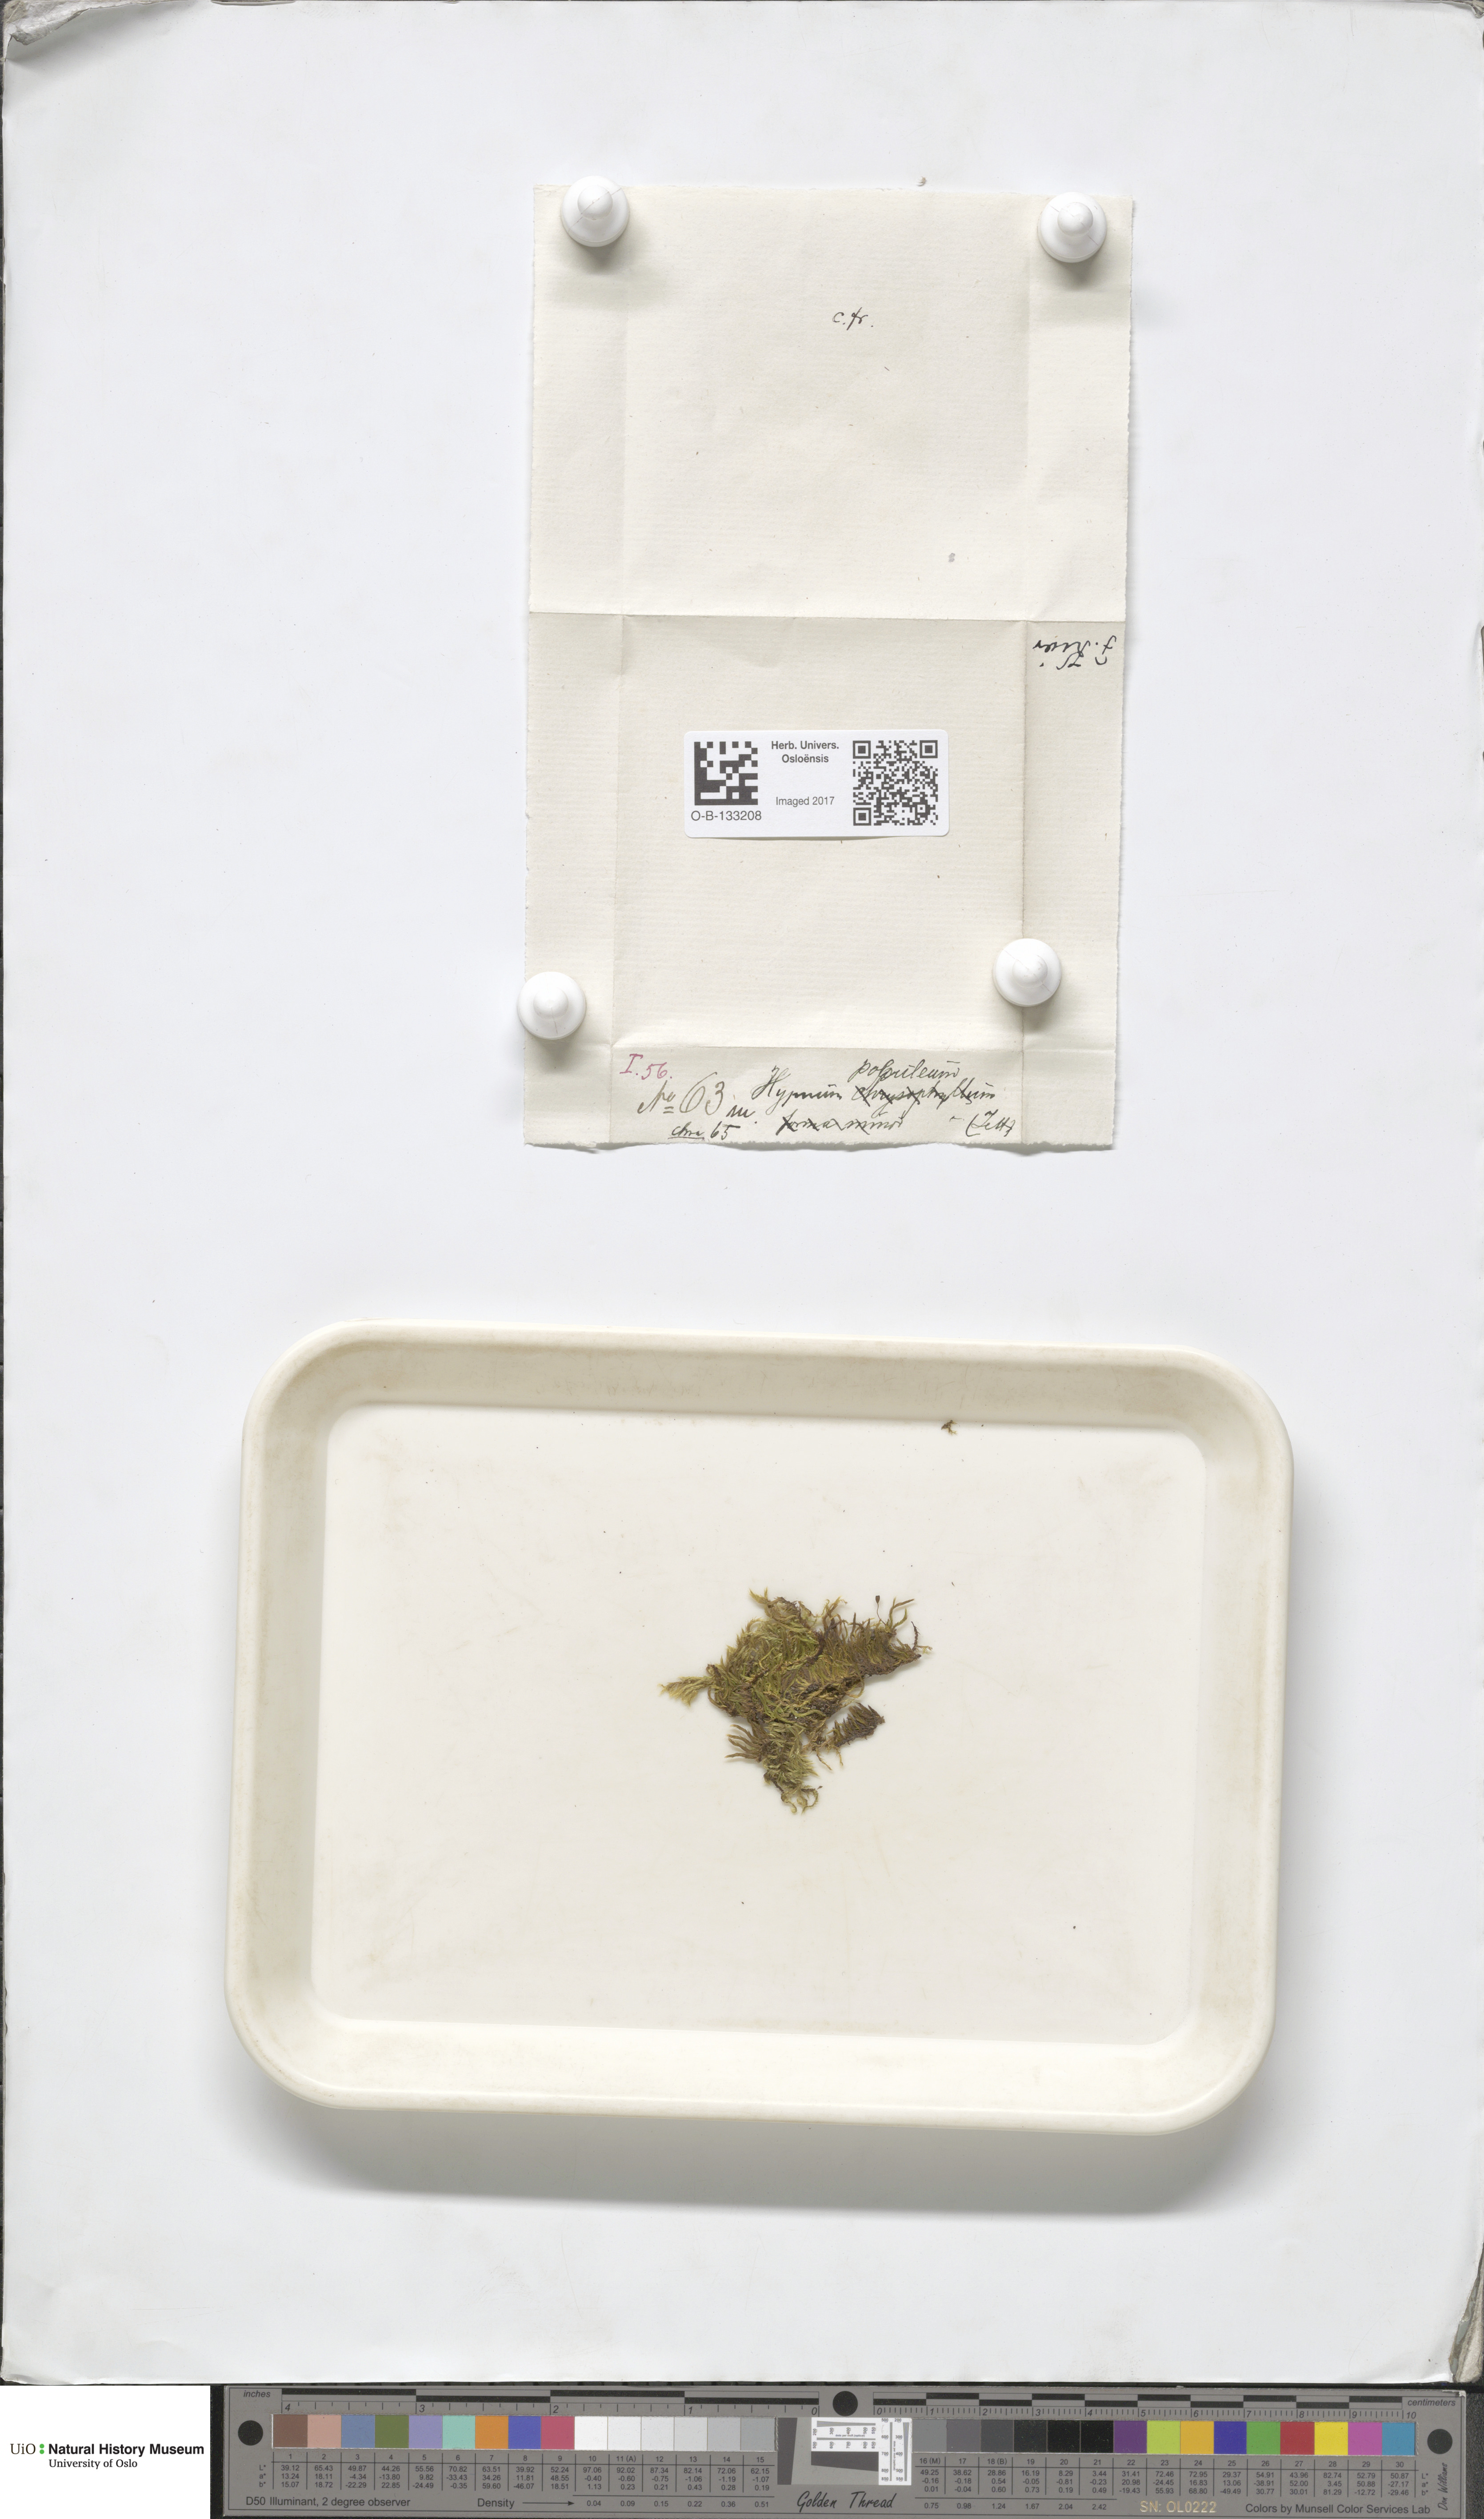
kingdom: Plantae
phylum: Bryophyta
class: Bryopsida
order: Hypnales
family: Brachytheciaceae
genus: Sciuro-hypnum
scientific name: Sciuro-hypnum populeum
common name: Matted feather-moss
